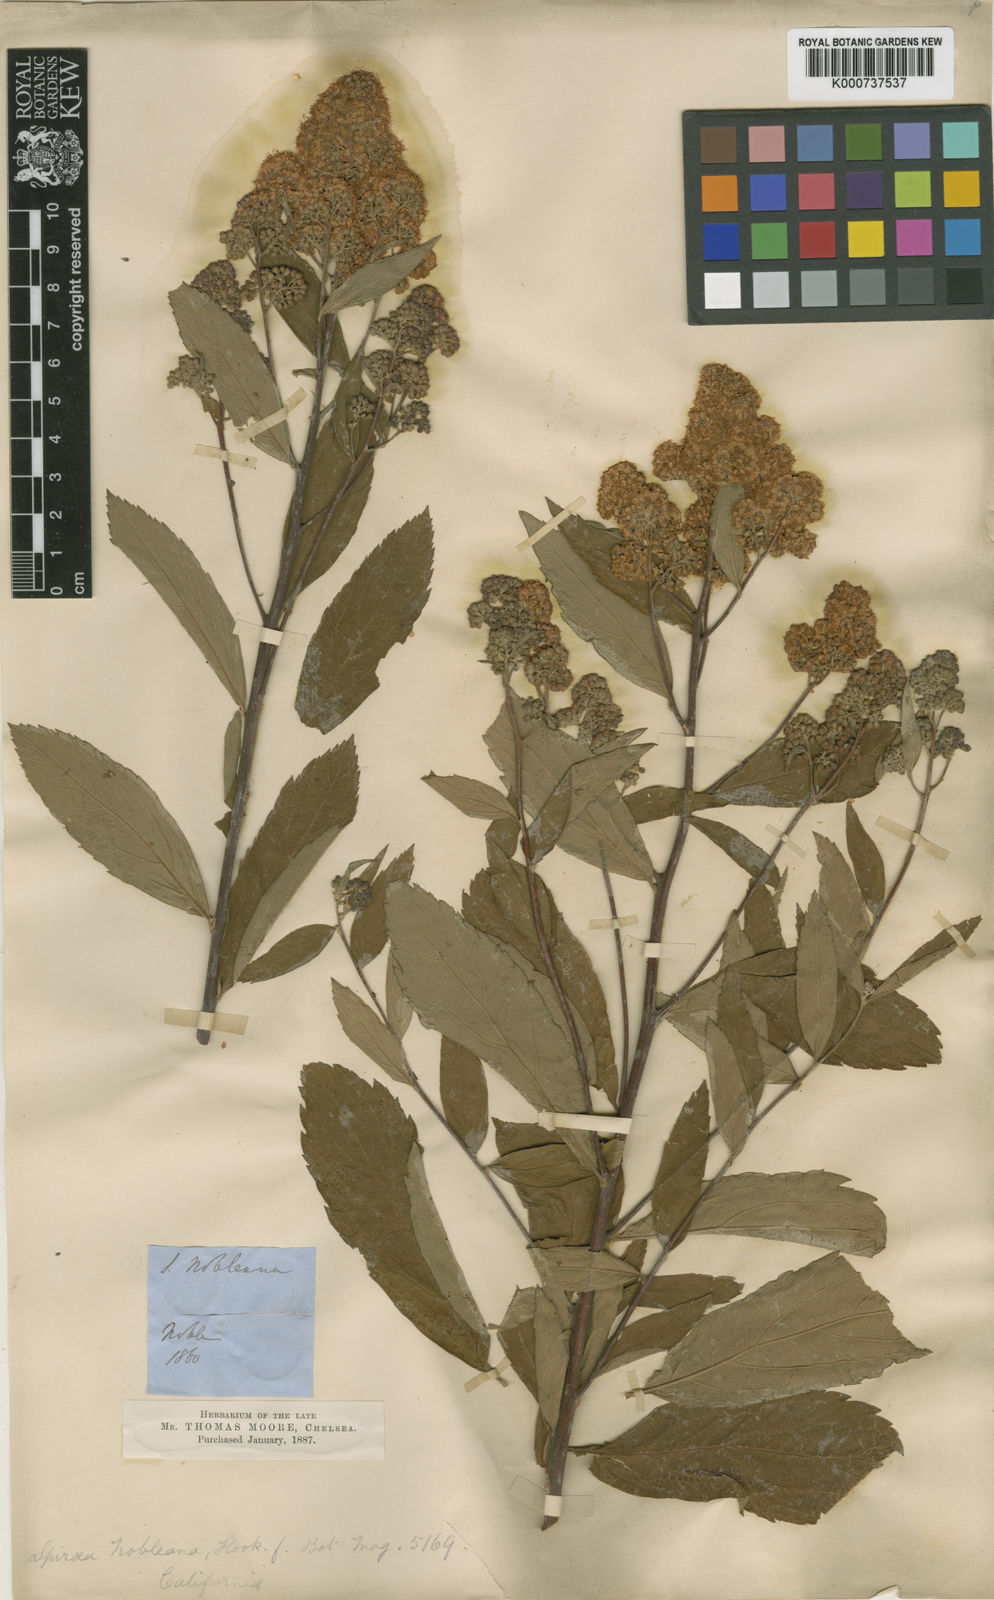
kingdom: Plantae
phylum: Tracheophyta
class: Magnoliopsida
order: Rosales
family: Rosaceae
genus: Spiraea
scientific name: Spiraea sanssouciana
